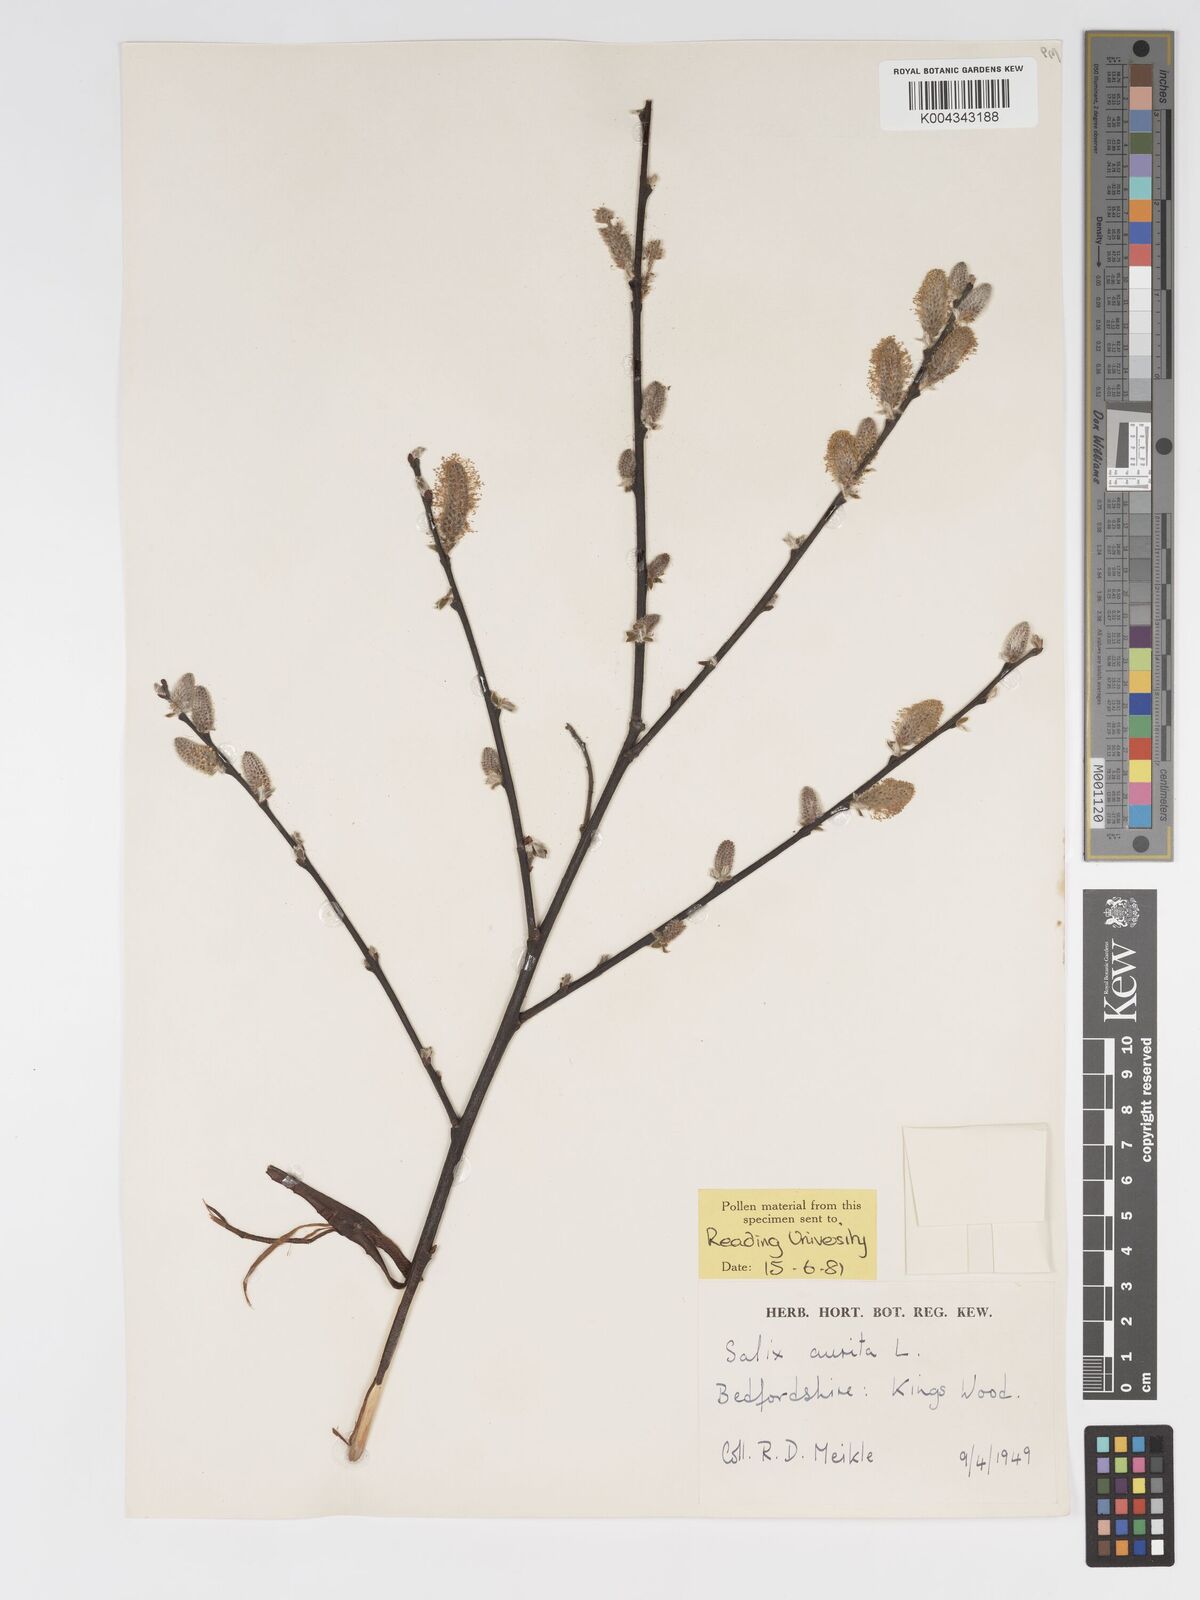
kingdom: Plantae
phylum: Tracheophyta
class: Magnoliopsida
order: Malpighiales
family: Salicaceae
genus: Salix
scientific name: Salix aurita
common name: Eared willow
